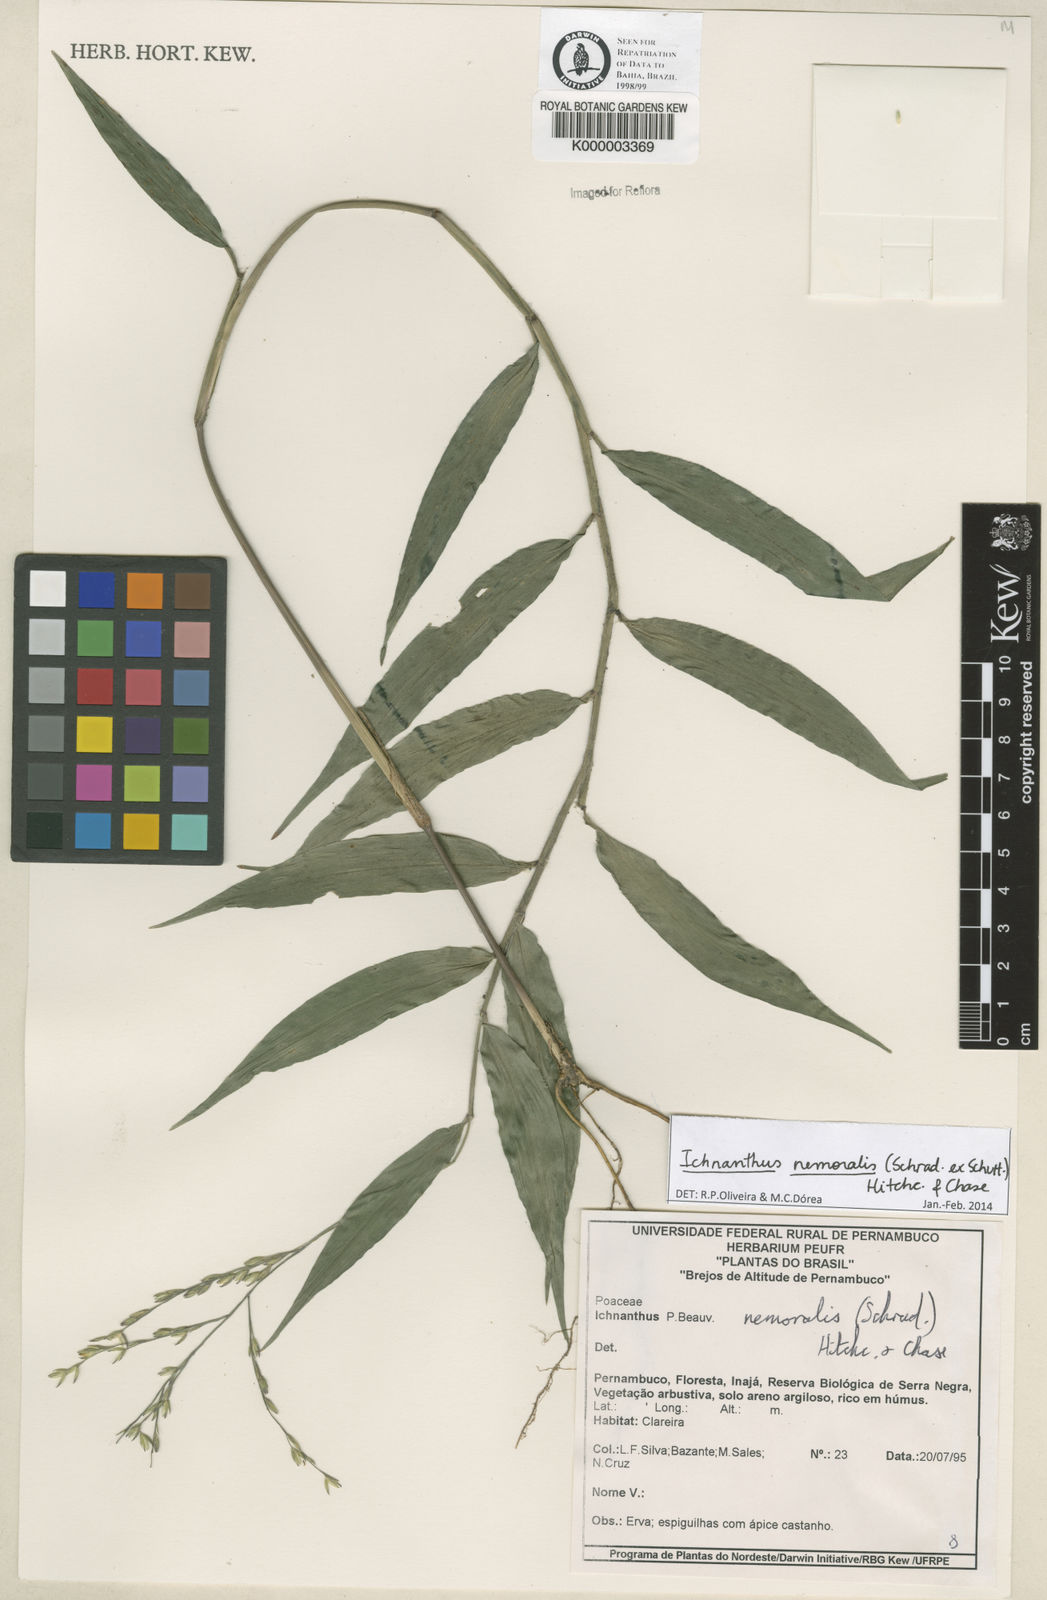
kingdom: Plantae
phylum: Tracheophyta
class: Liliopsida
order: Poales
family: Poaceae
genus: Ichnanthus
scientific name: Ichnanthus nemoralis
